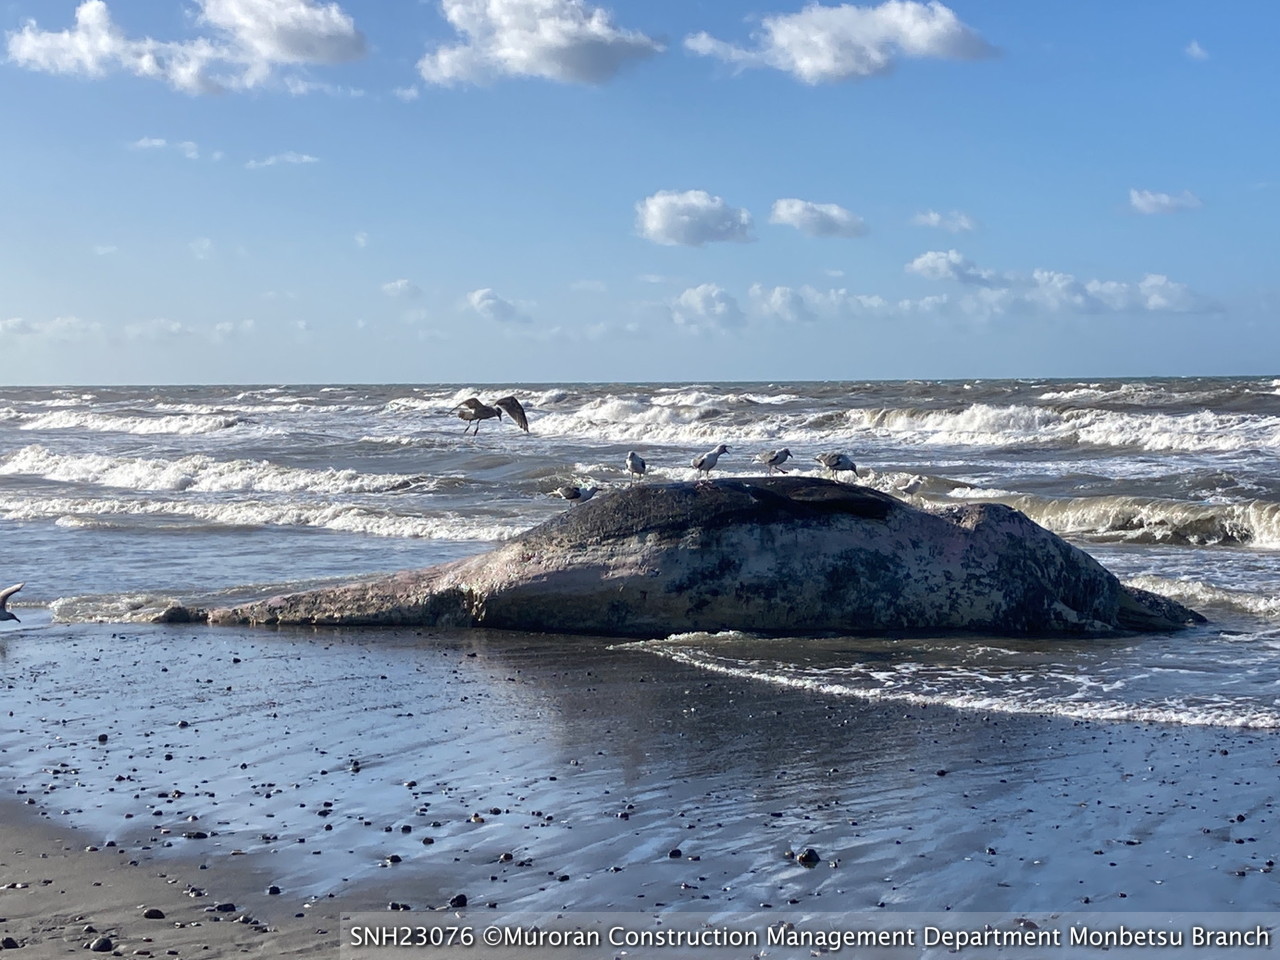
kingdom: Animalia
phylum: Chordata
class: Mammalia
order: Cetacea
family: Physeteridae
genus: Physeter
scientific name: Physeter macrocephalus
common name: Sperm whale
